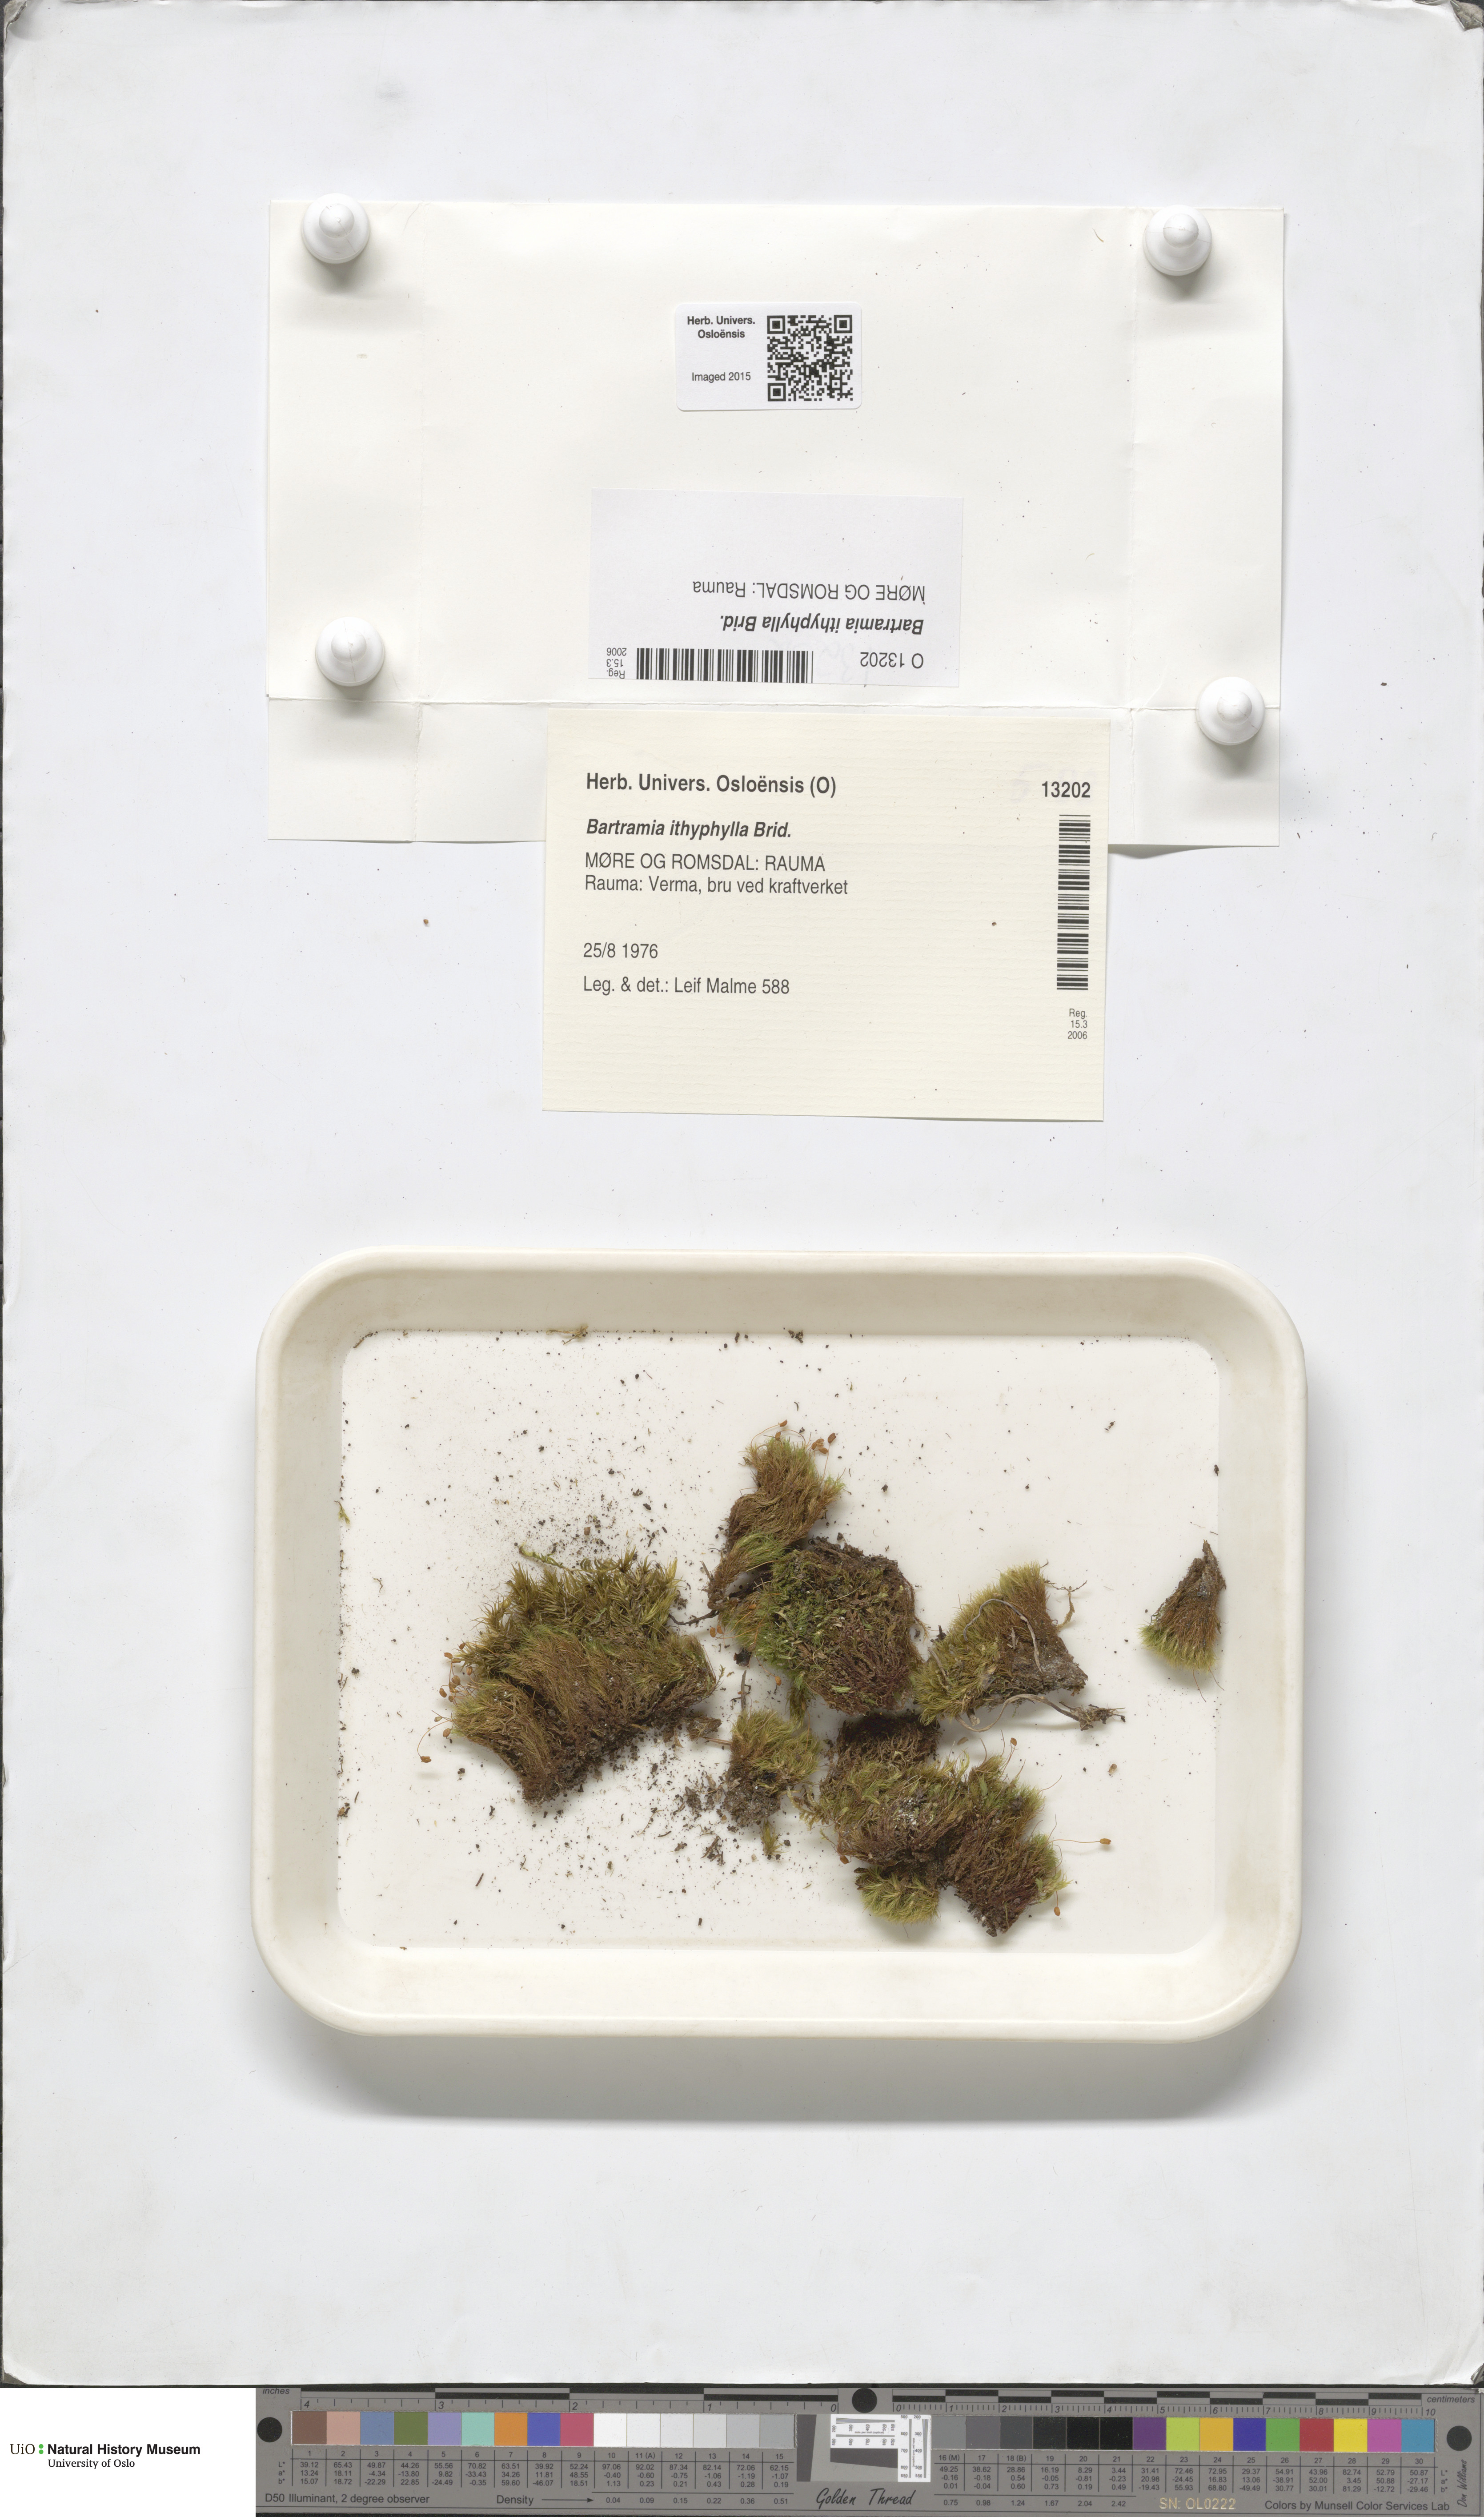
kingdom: Plantae
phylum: Bryophyta
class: Bryopsida
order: Bartramiales
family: Bartramiaceae
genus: Bartramia
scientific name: Bartramia ithyphylla
